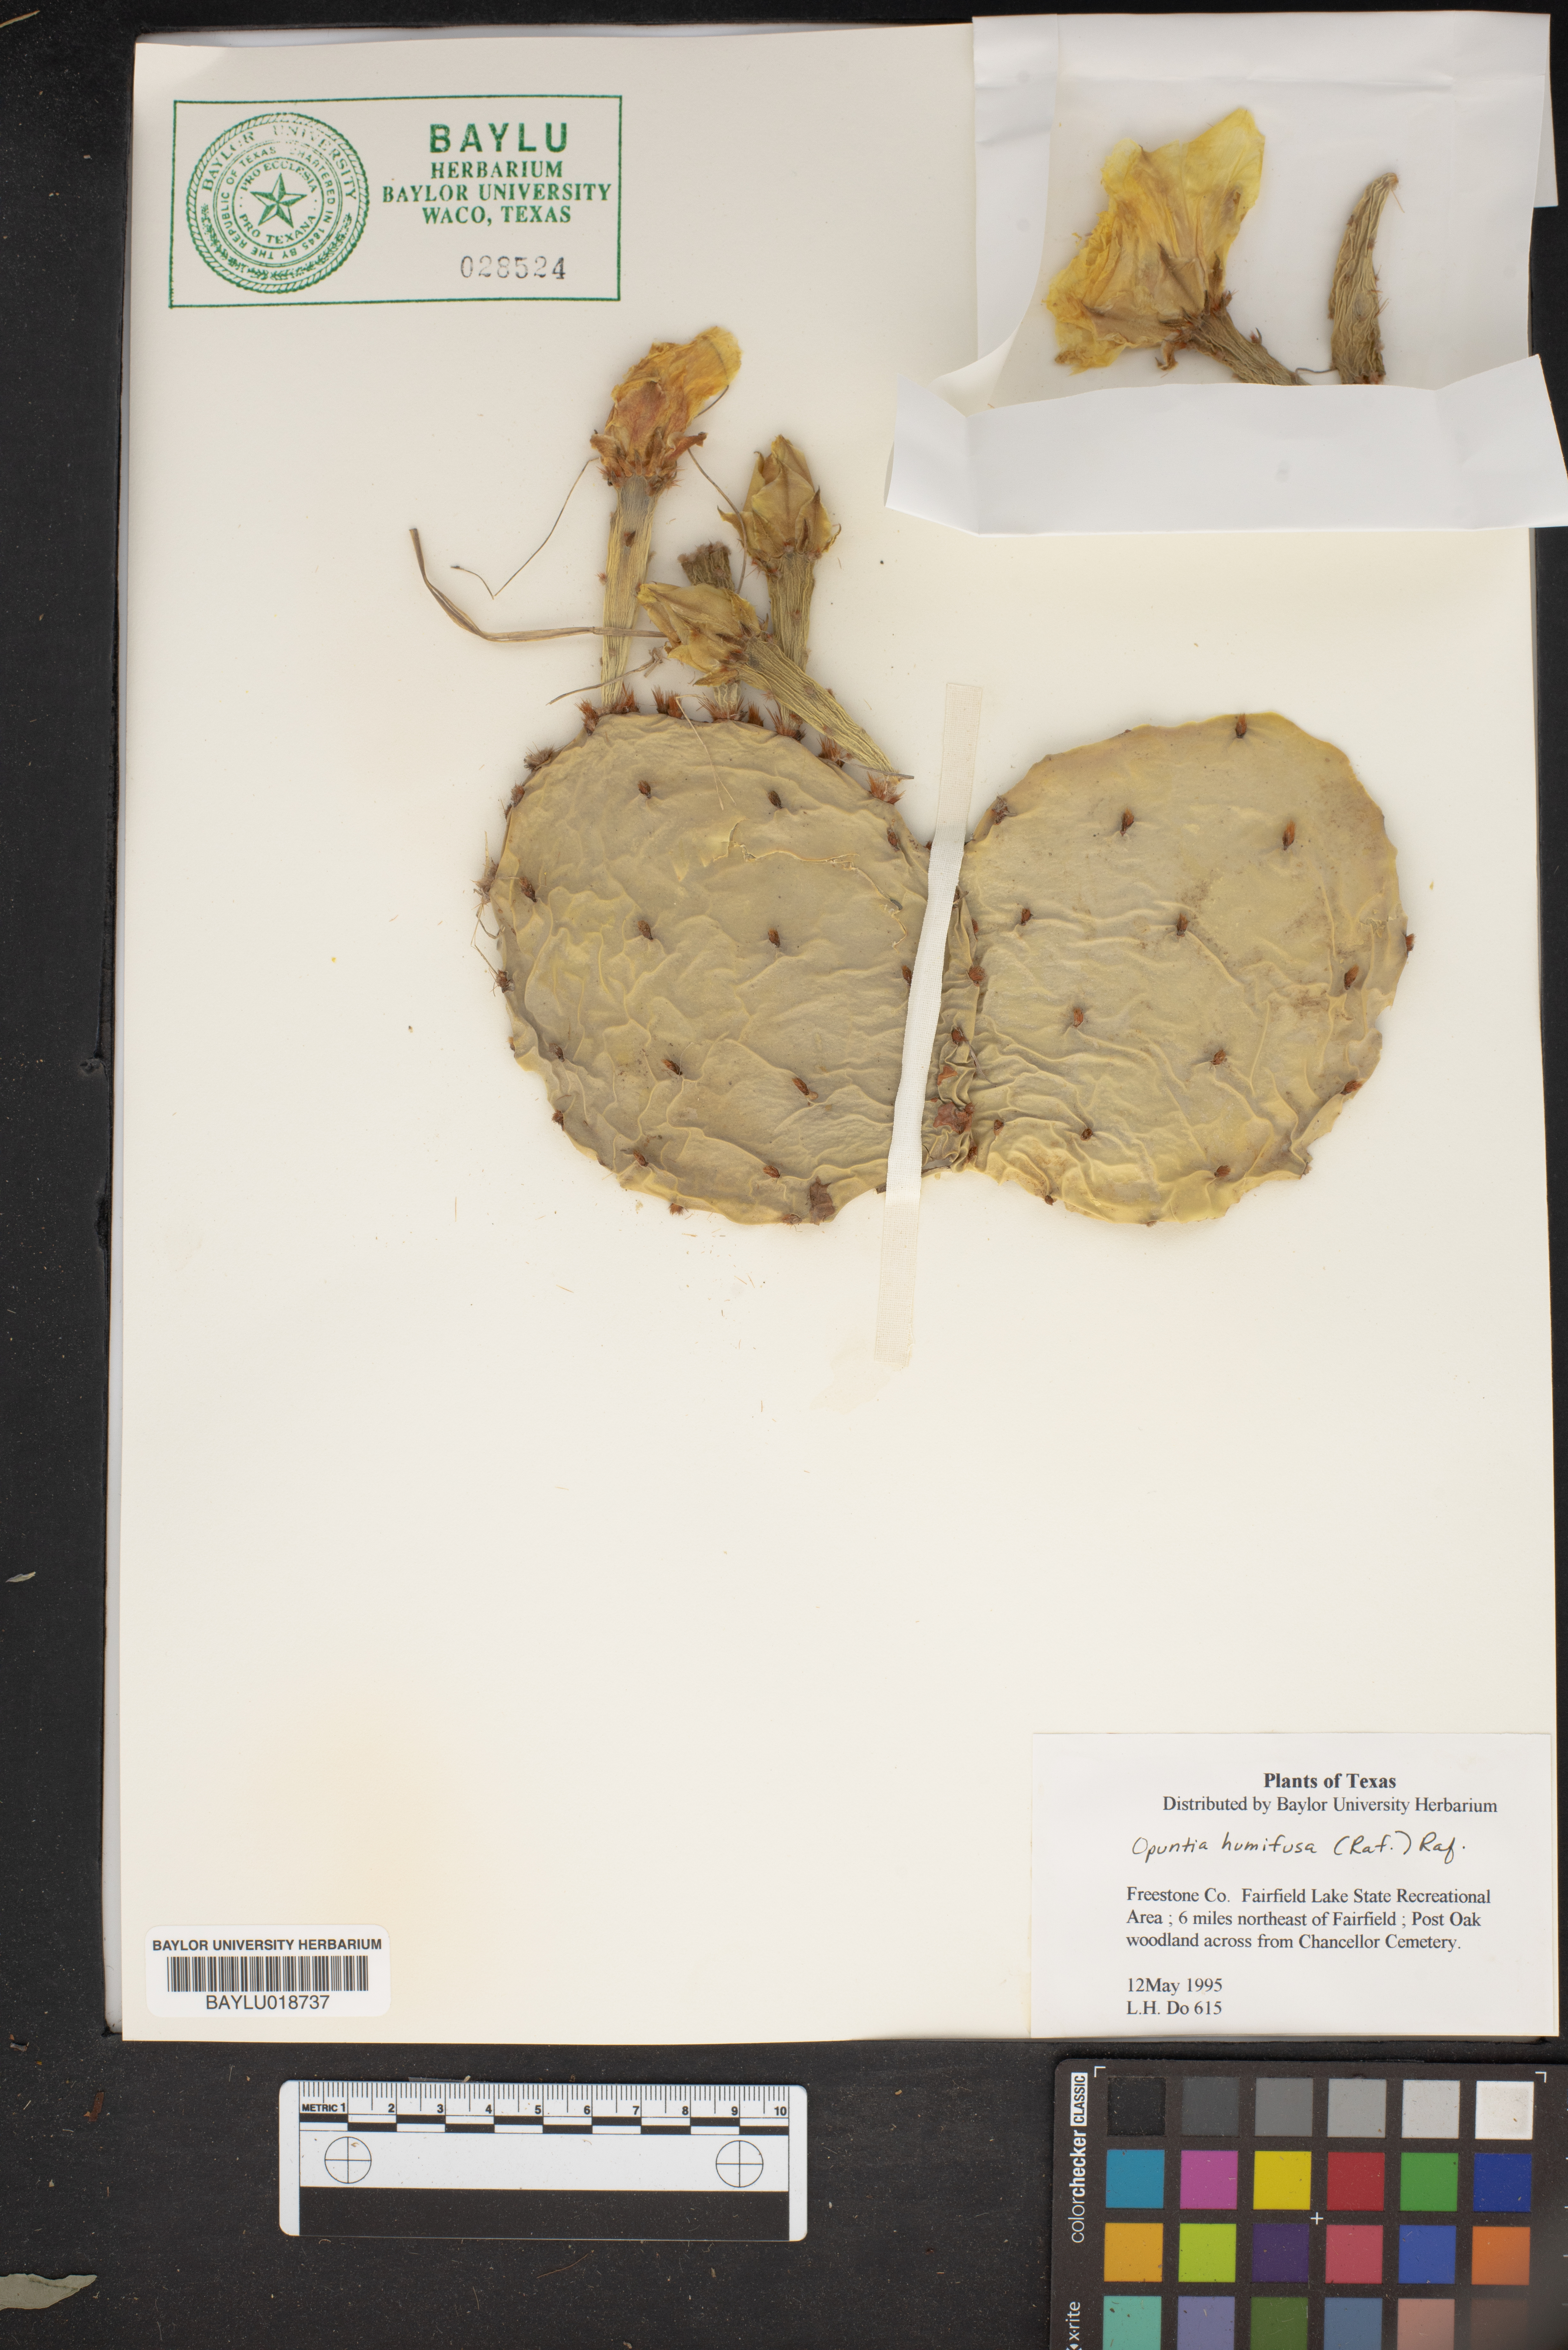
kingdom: Plantae
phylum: Tracheophyta
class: Magnoliopsida
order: Caryophyllales
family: Cactaceae
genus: Opuntia
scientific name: Opuntia humifusa
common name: Eastern prickly-pear
